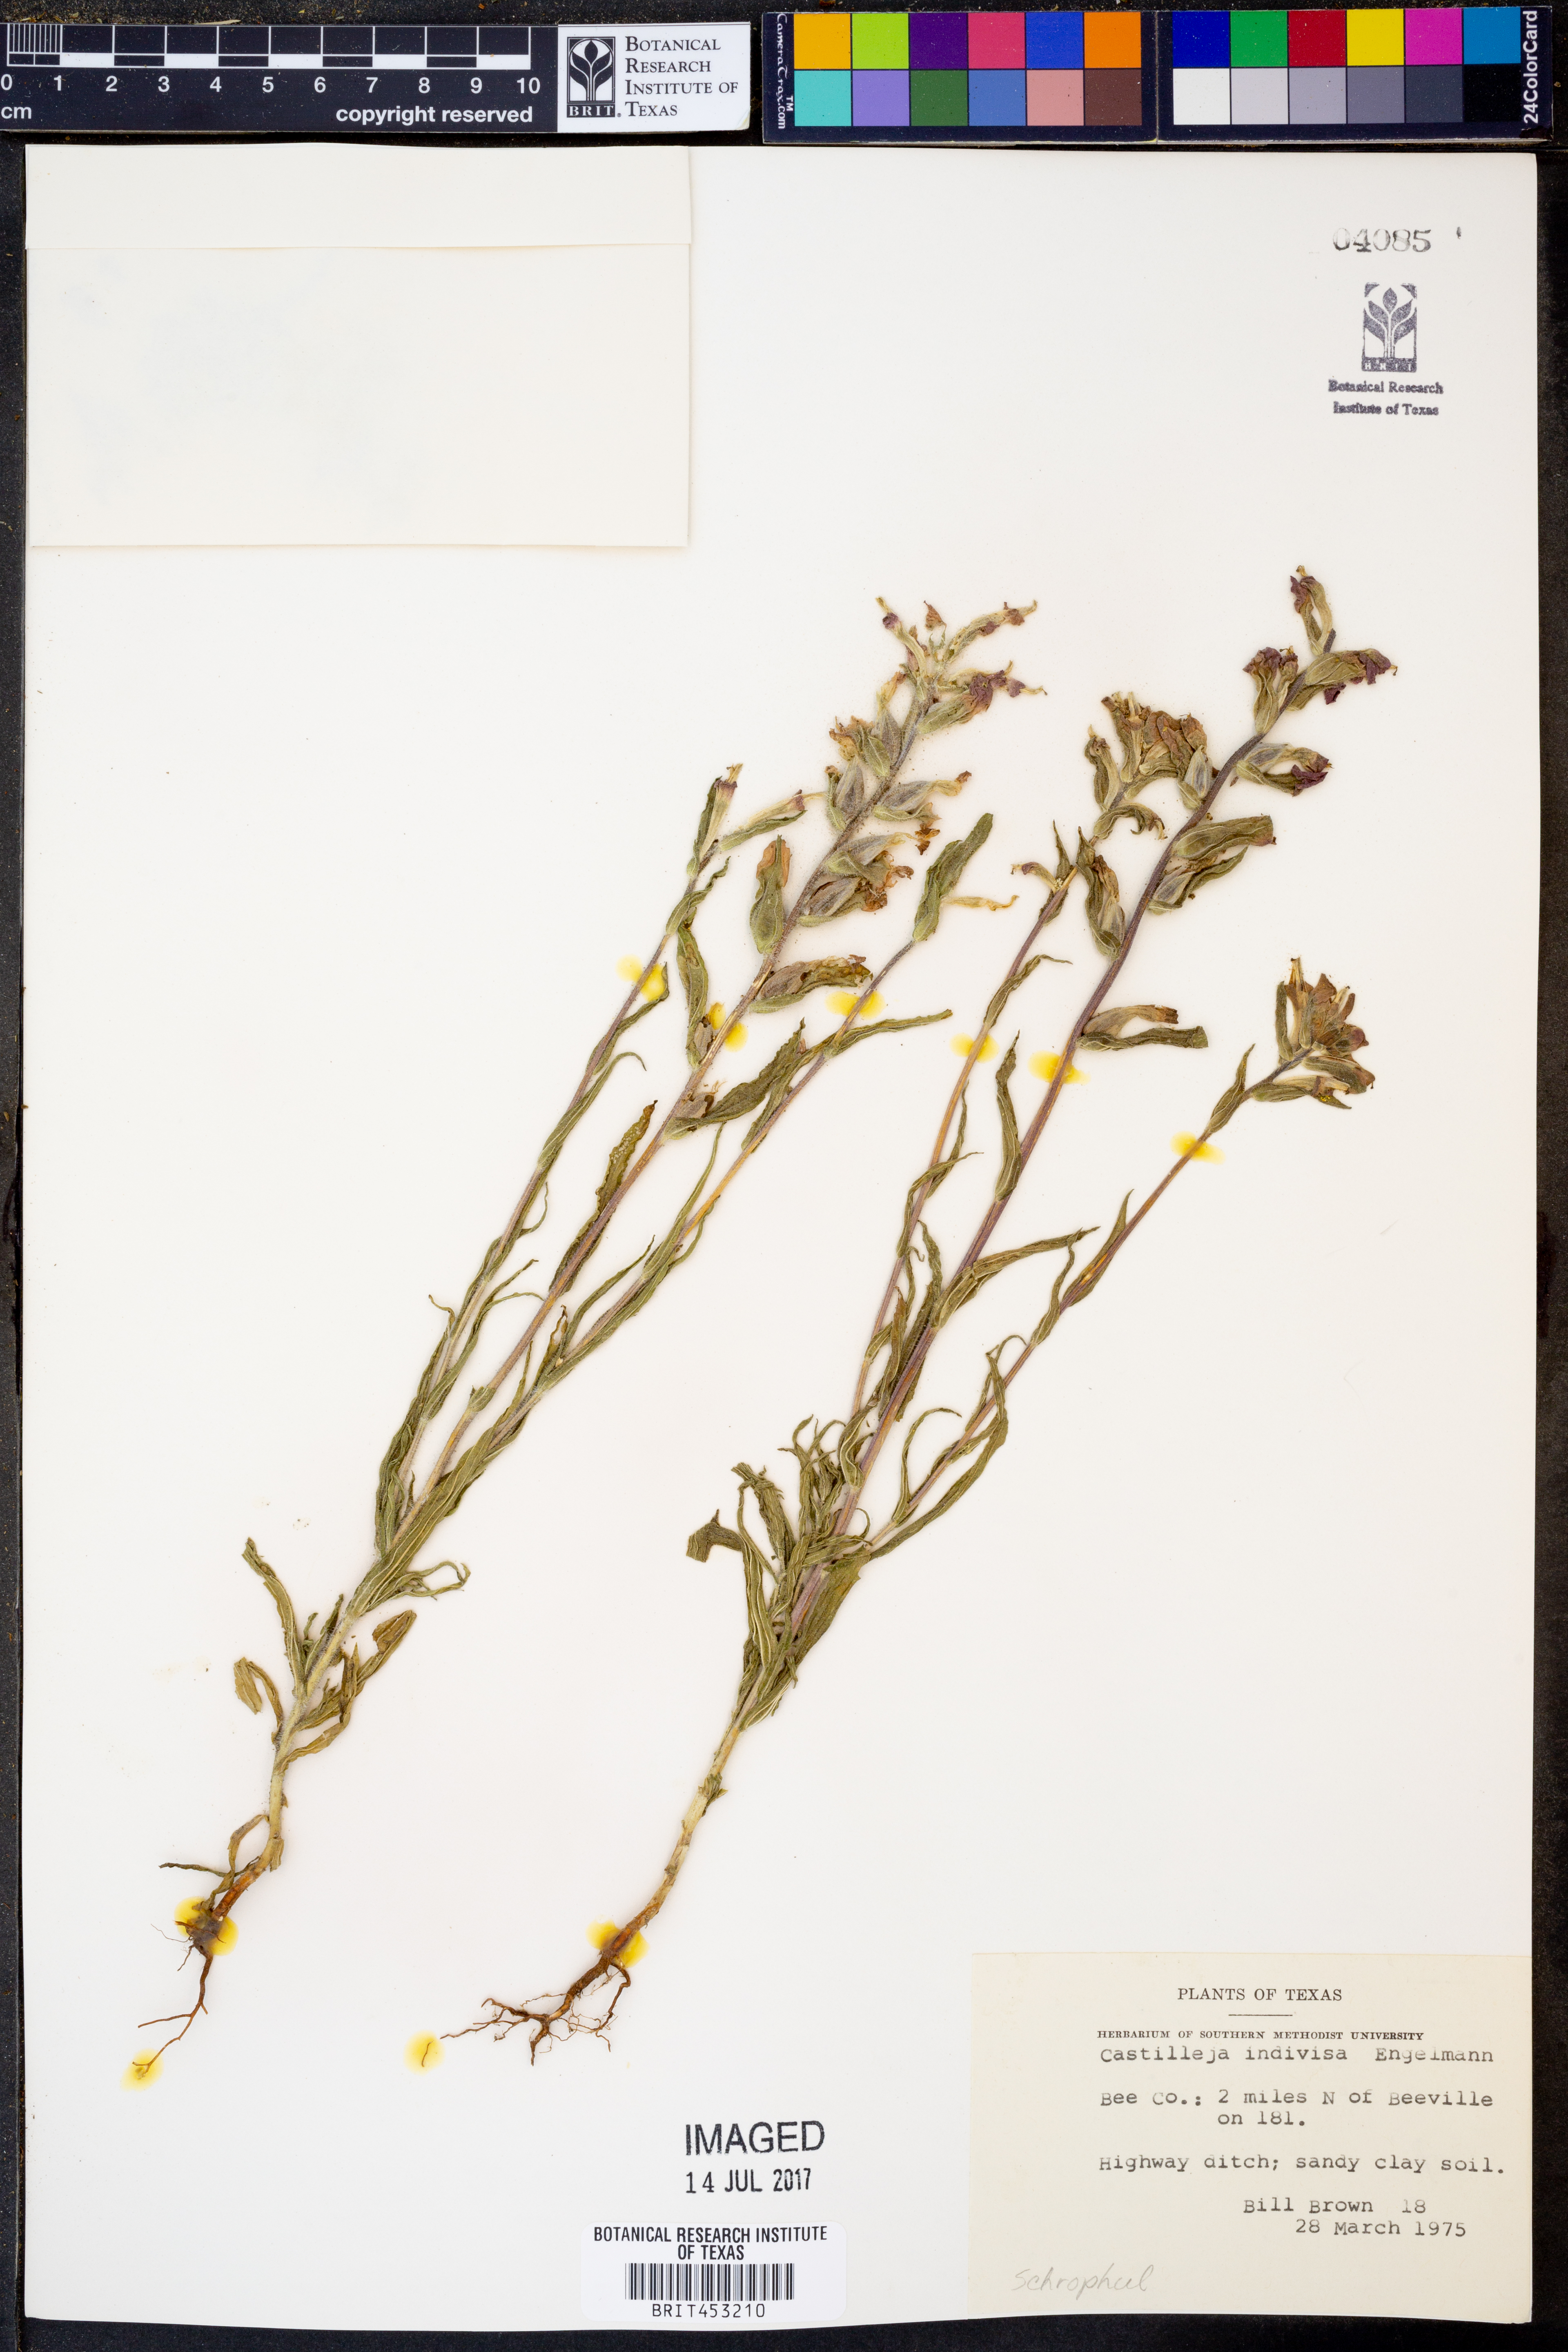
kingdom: Plantae
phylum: Tracheophyta
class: Magnoliopsida
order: Lamiales
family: Orobanchaceae
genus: Castilleja
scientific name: Castilleja indivisa
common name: Texas paintbrush
